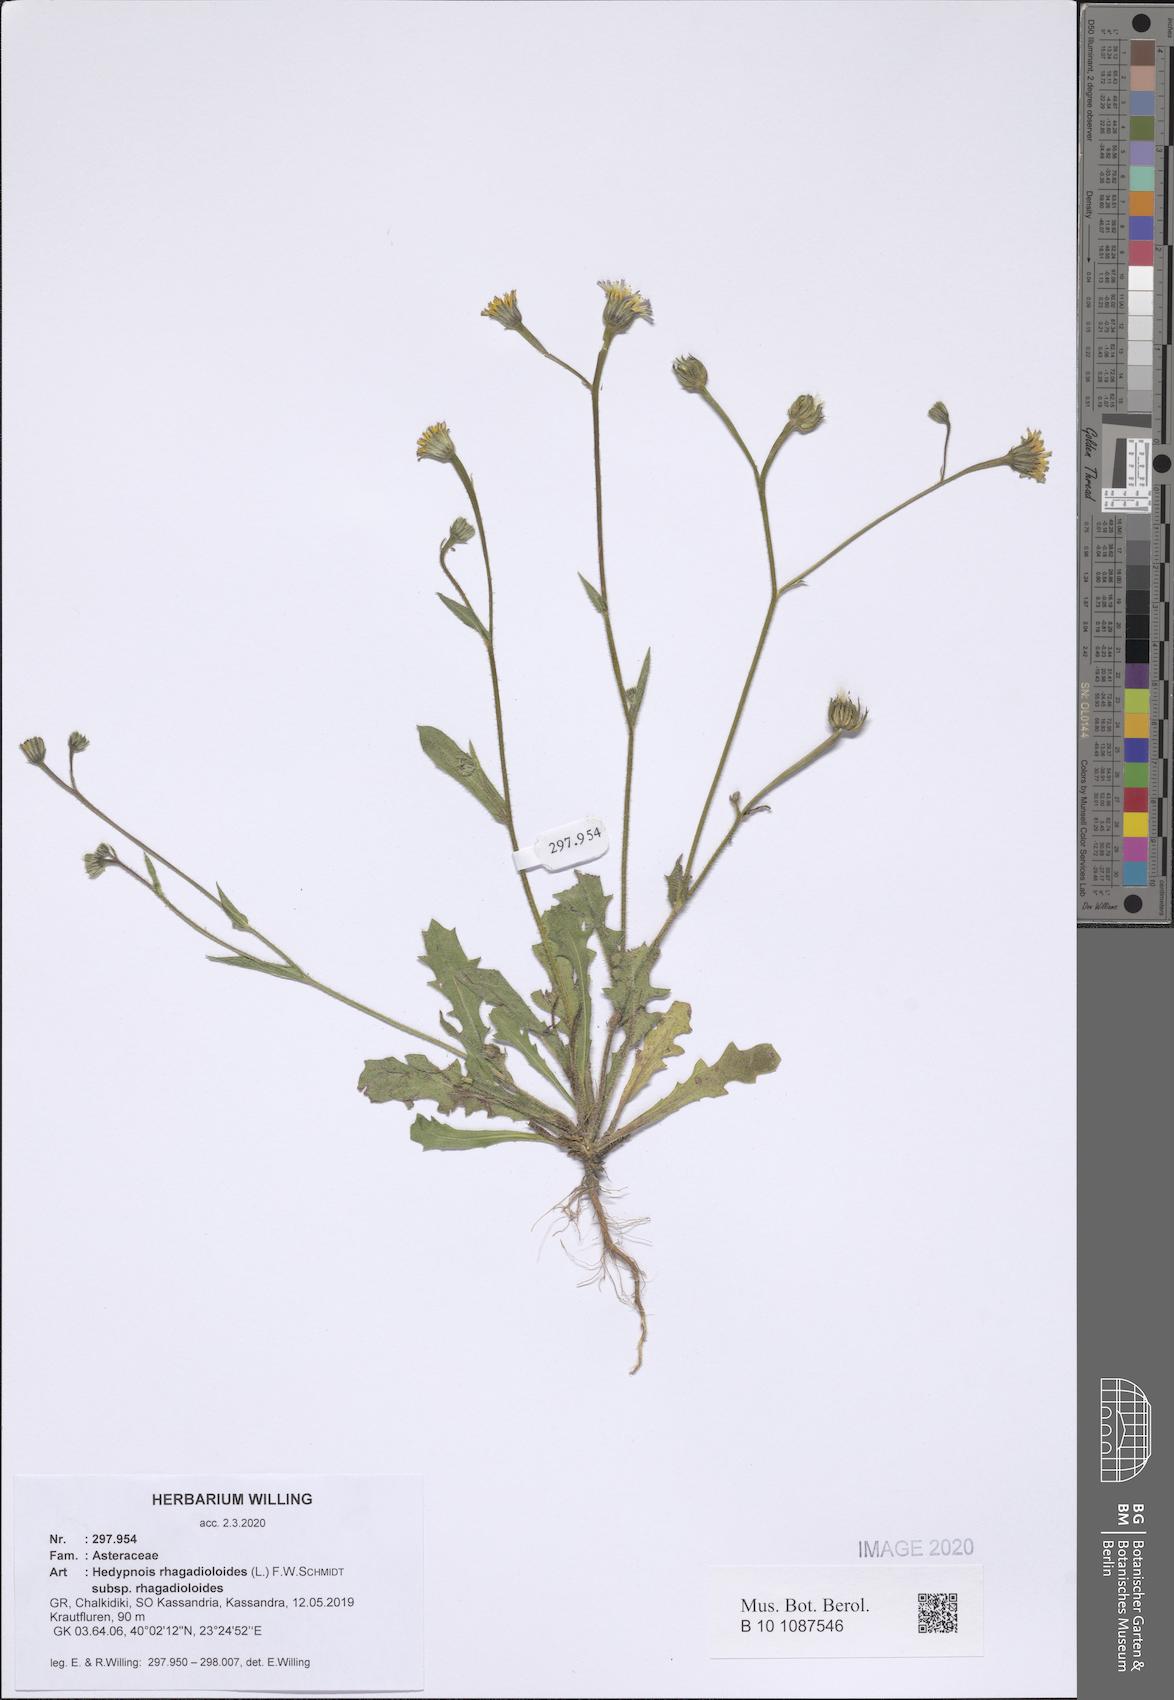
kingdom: Plantae
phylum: Tracheophyta
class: Magnoliopsida
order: Asterales
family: Asteraceae
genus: Hedypnois
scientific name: Hedypnois rhagadioloides
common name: Cretan weed
